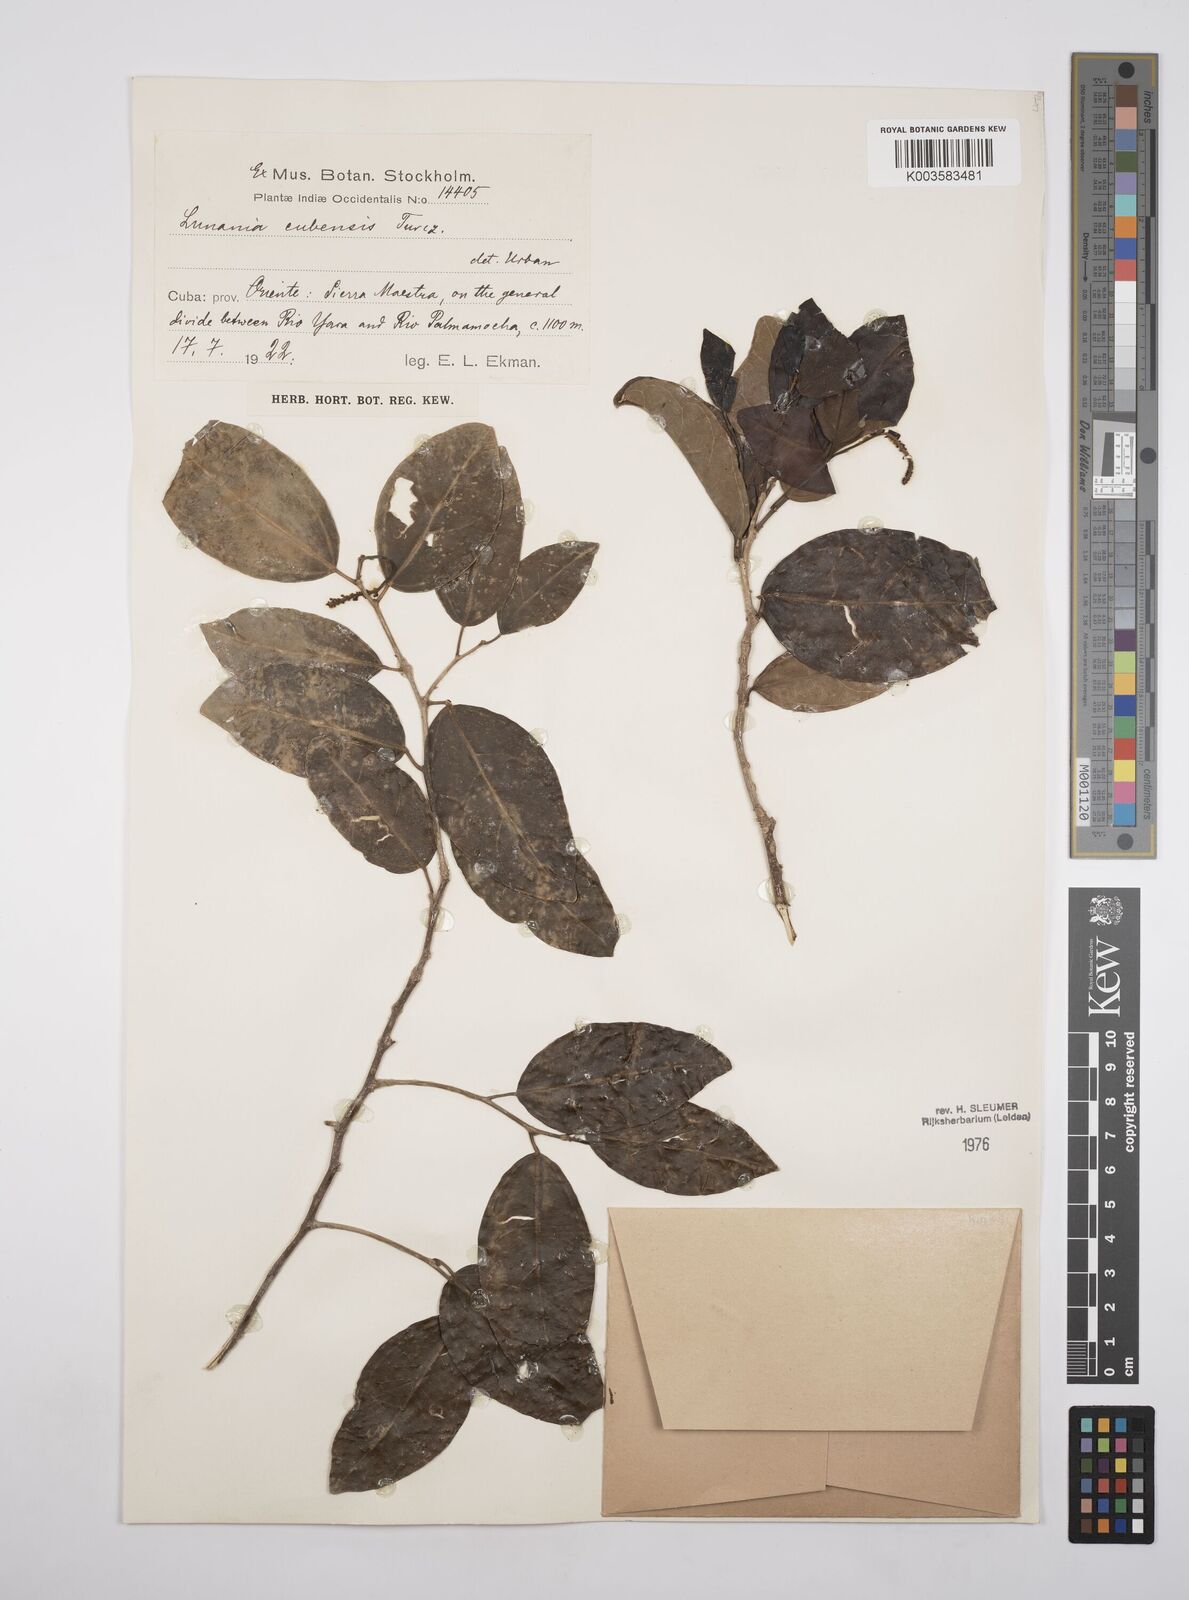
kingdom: Plantae
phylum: Tracheophyta
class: Magnoliopsida
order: Malpighiales
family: Salicaceae
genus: Lunania
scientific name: Lunania cubensis
